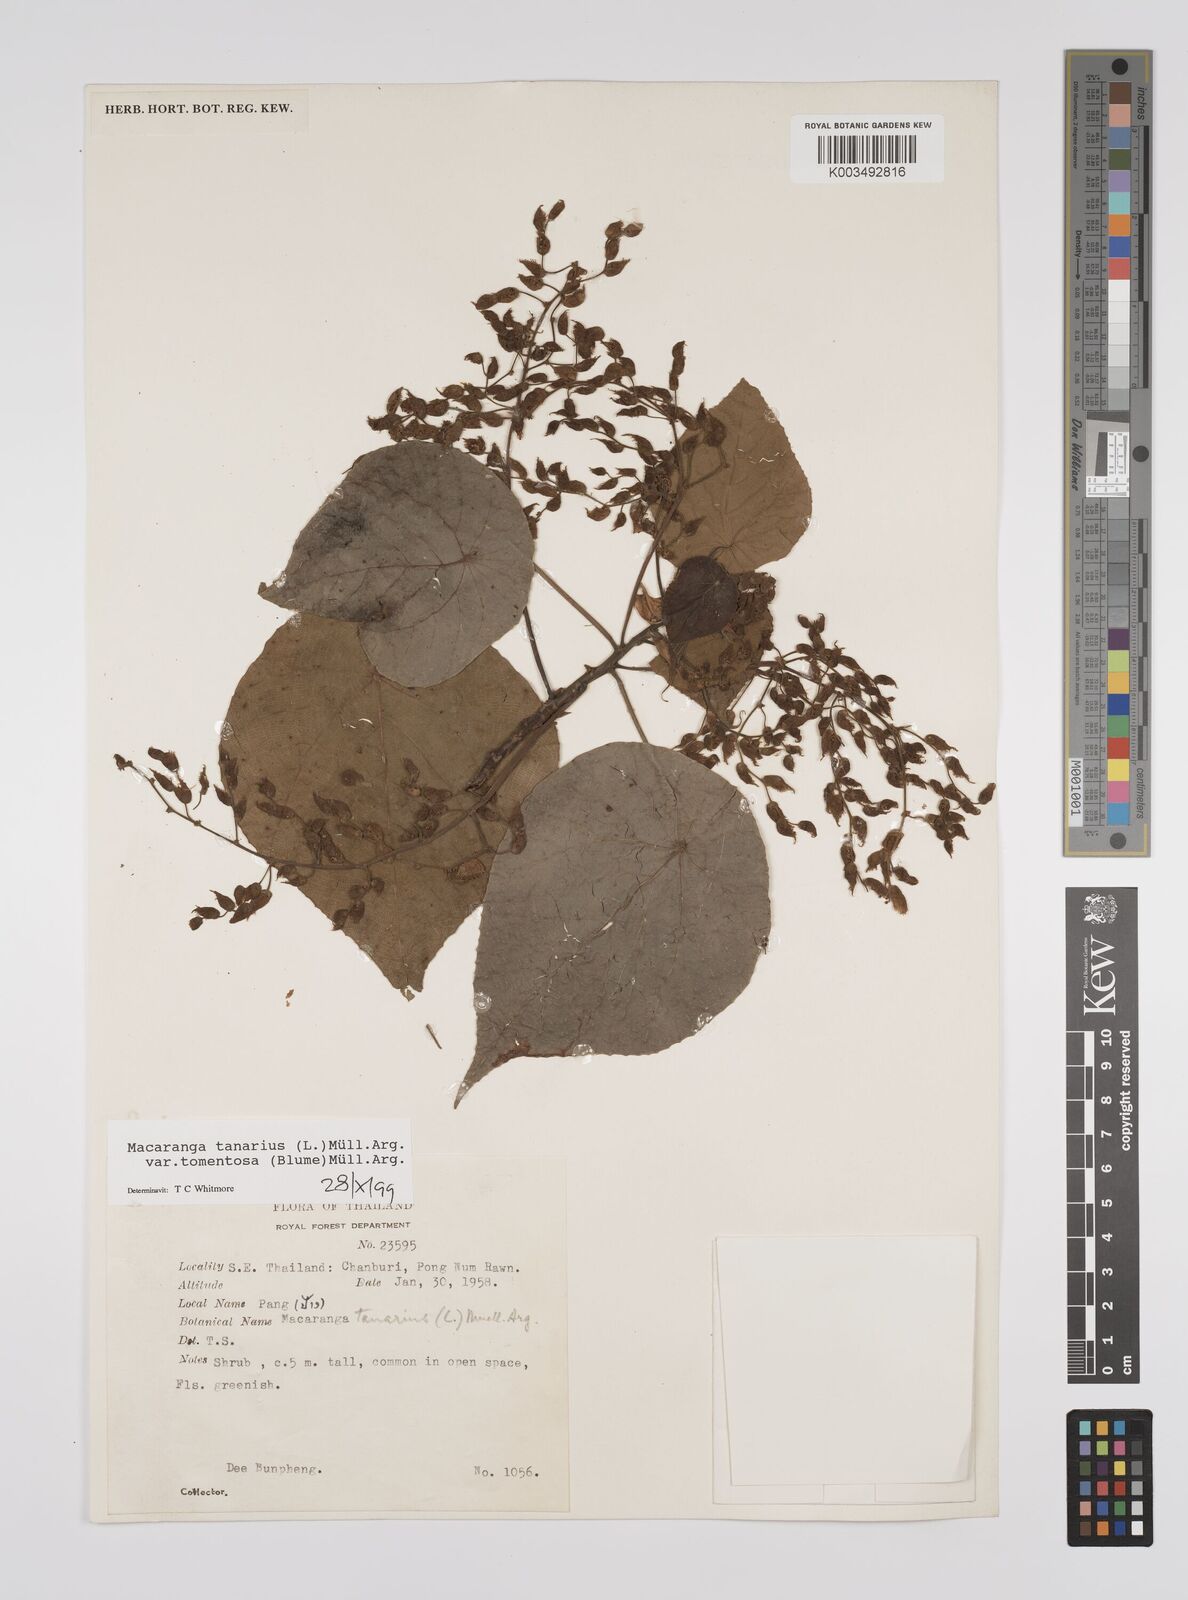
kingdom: Plantae
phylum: Tracheophyta
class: Magnoliopsida
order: Malpighiales
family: Euphorbiaceae
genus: Macaranga
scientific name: Macaranga tanarius
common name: Parasol leaf tree
